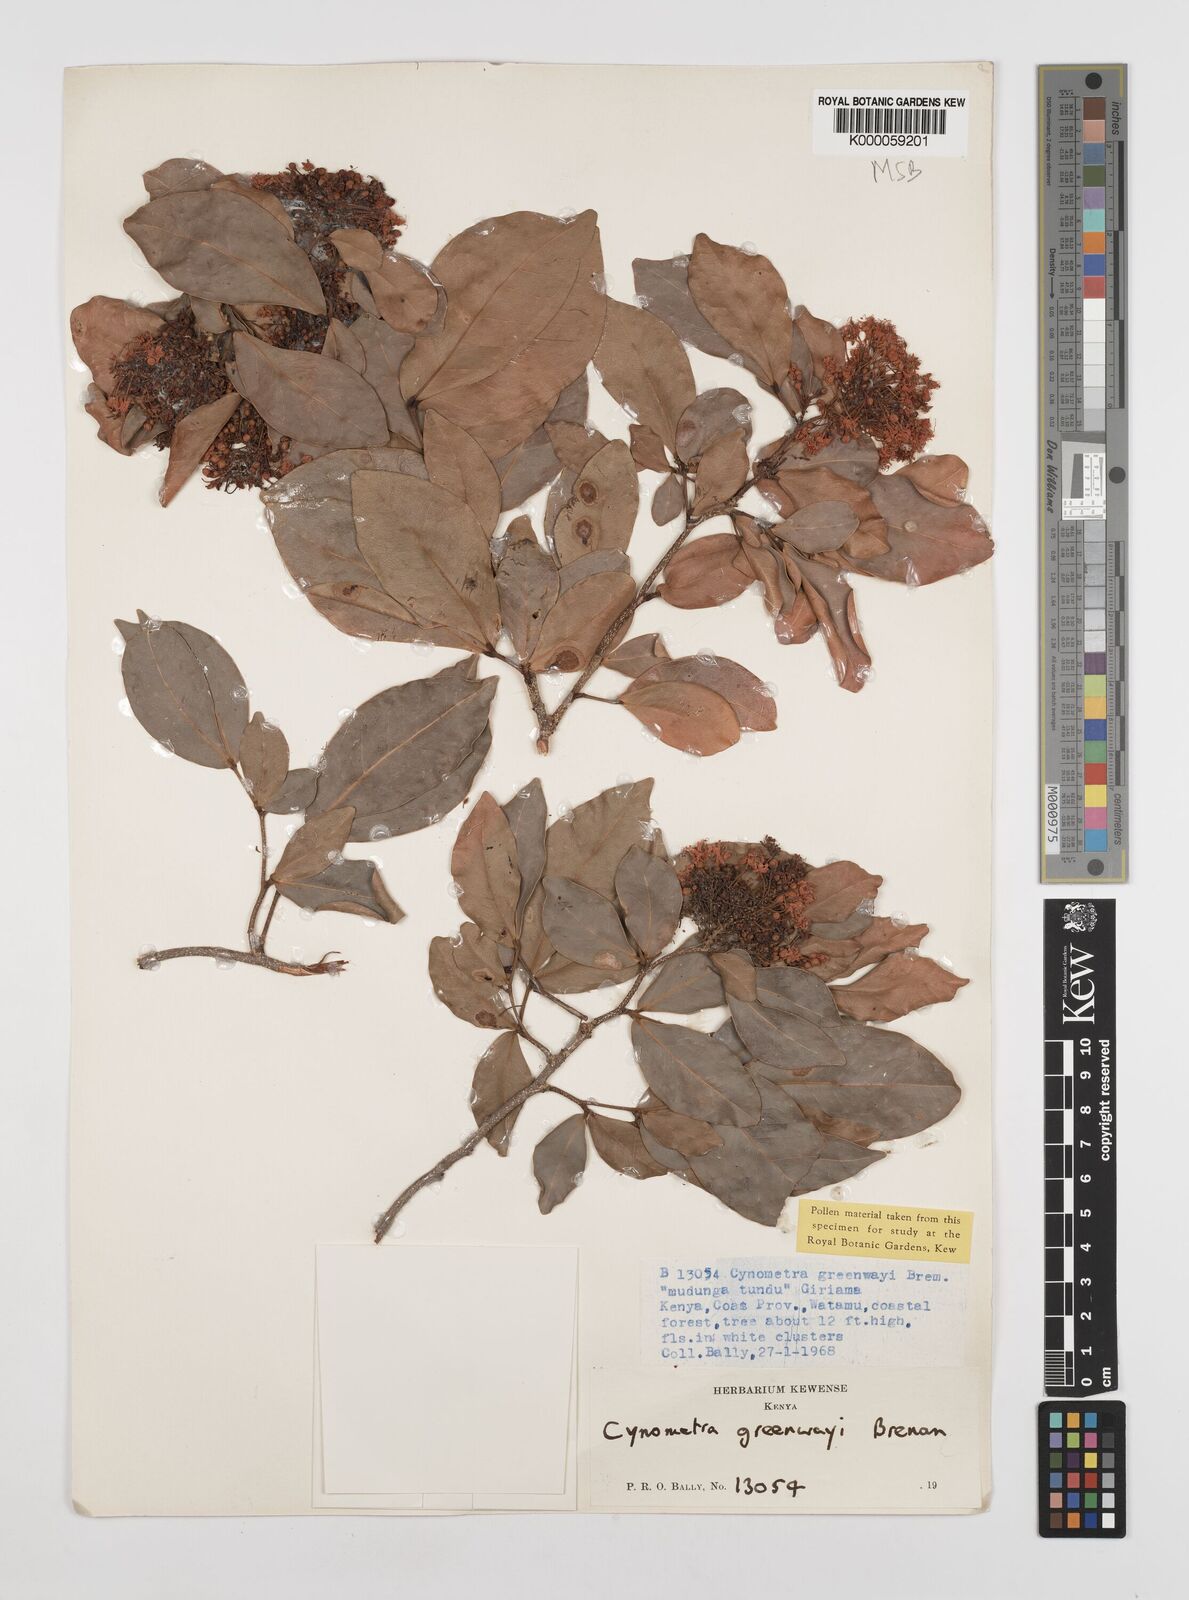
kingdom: Plantae
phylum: Tracheophyta
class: Magnoliopsida
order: Fabales
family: Fabaceae
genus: Cynometra
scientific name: Cynometra greenwayi
